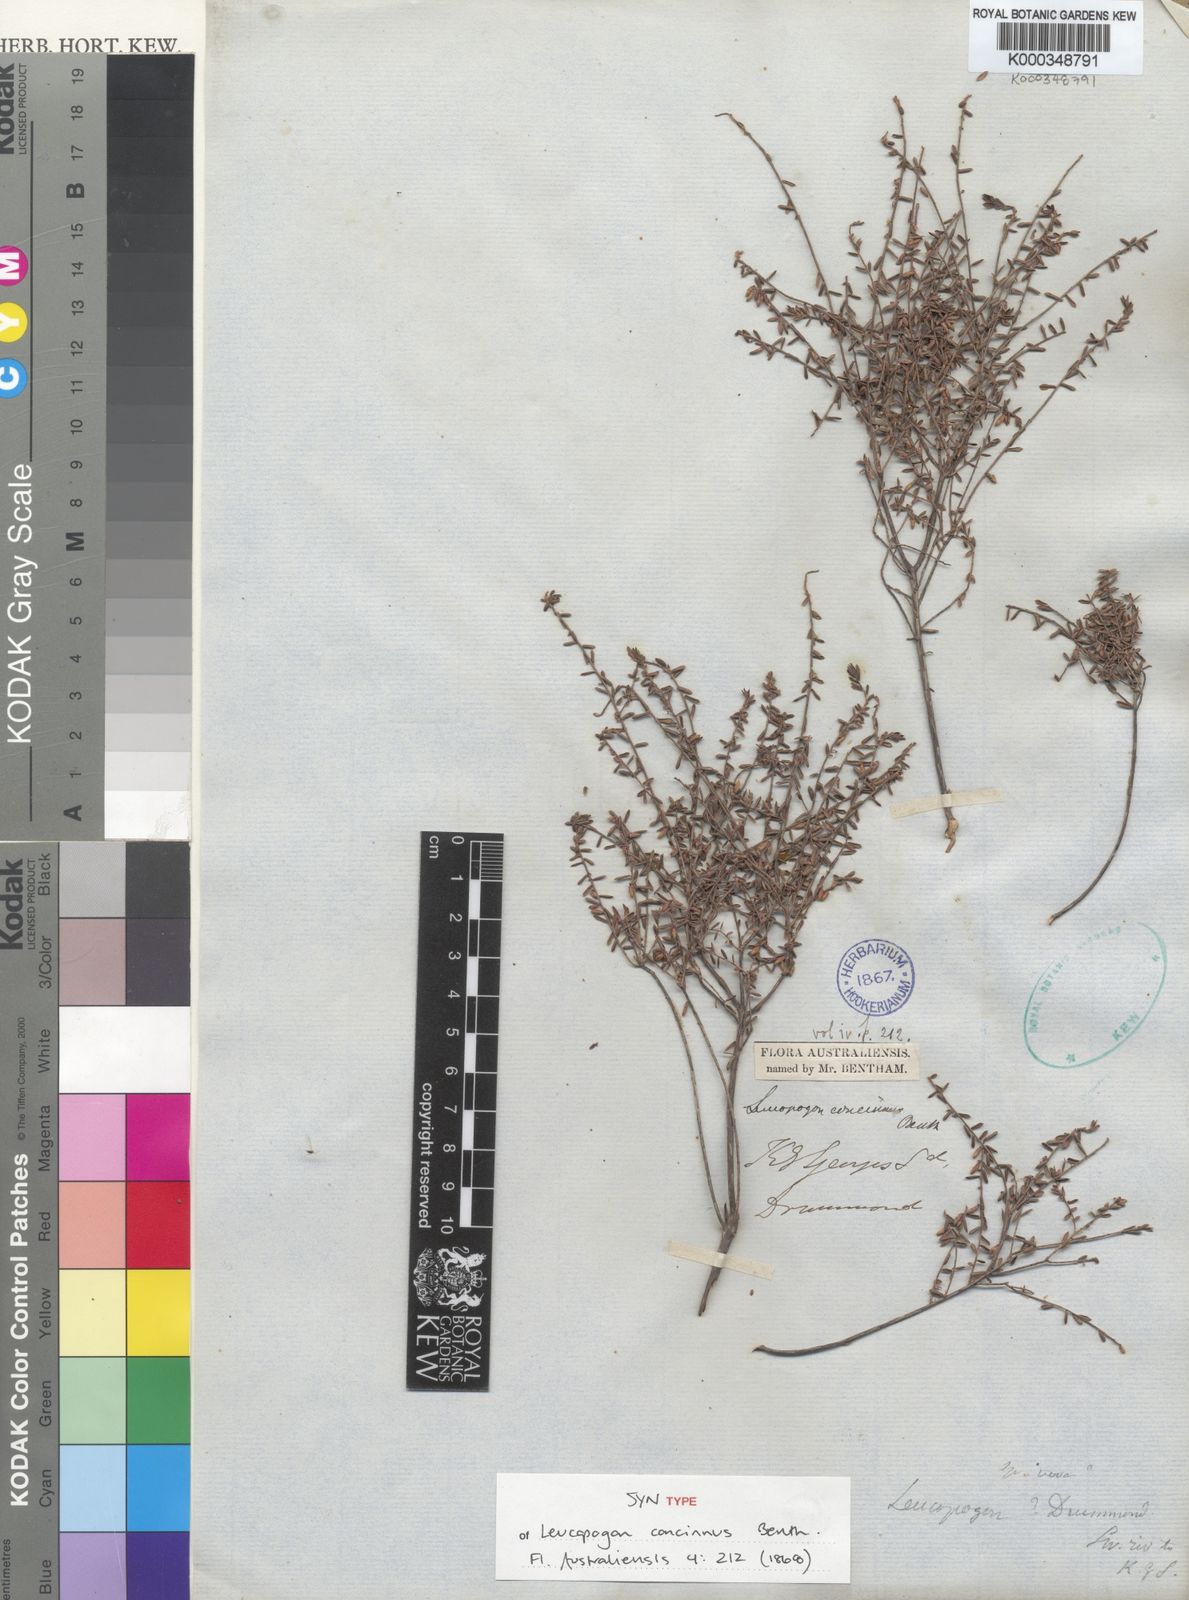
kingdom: Plantae
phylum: Tracheophyta
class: Magnoliopsida
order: Ericales
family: Ericaceae
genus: Styphelia
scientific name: Styphelia concinna
